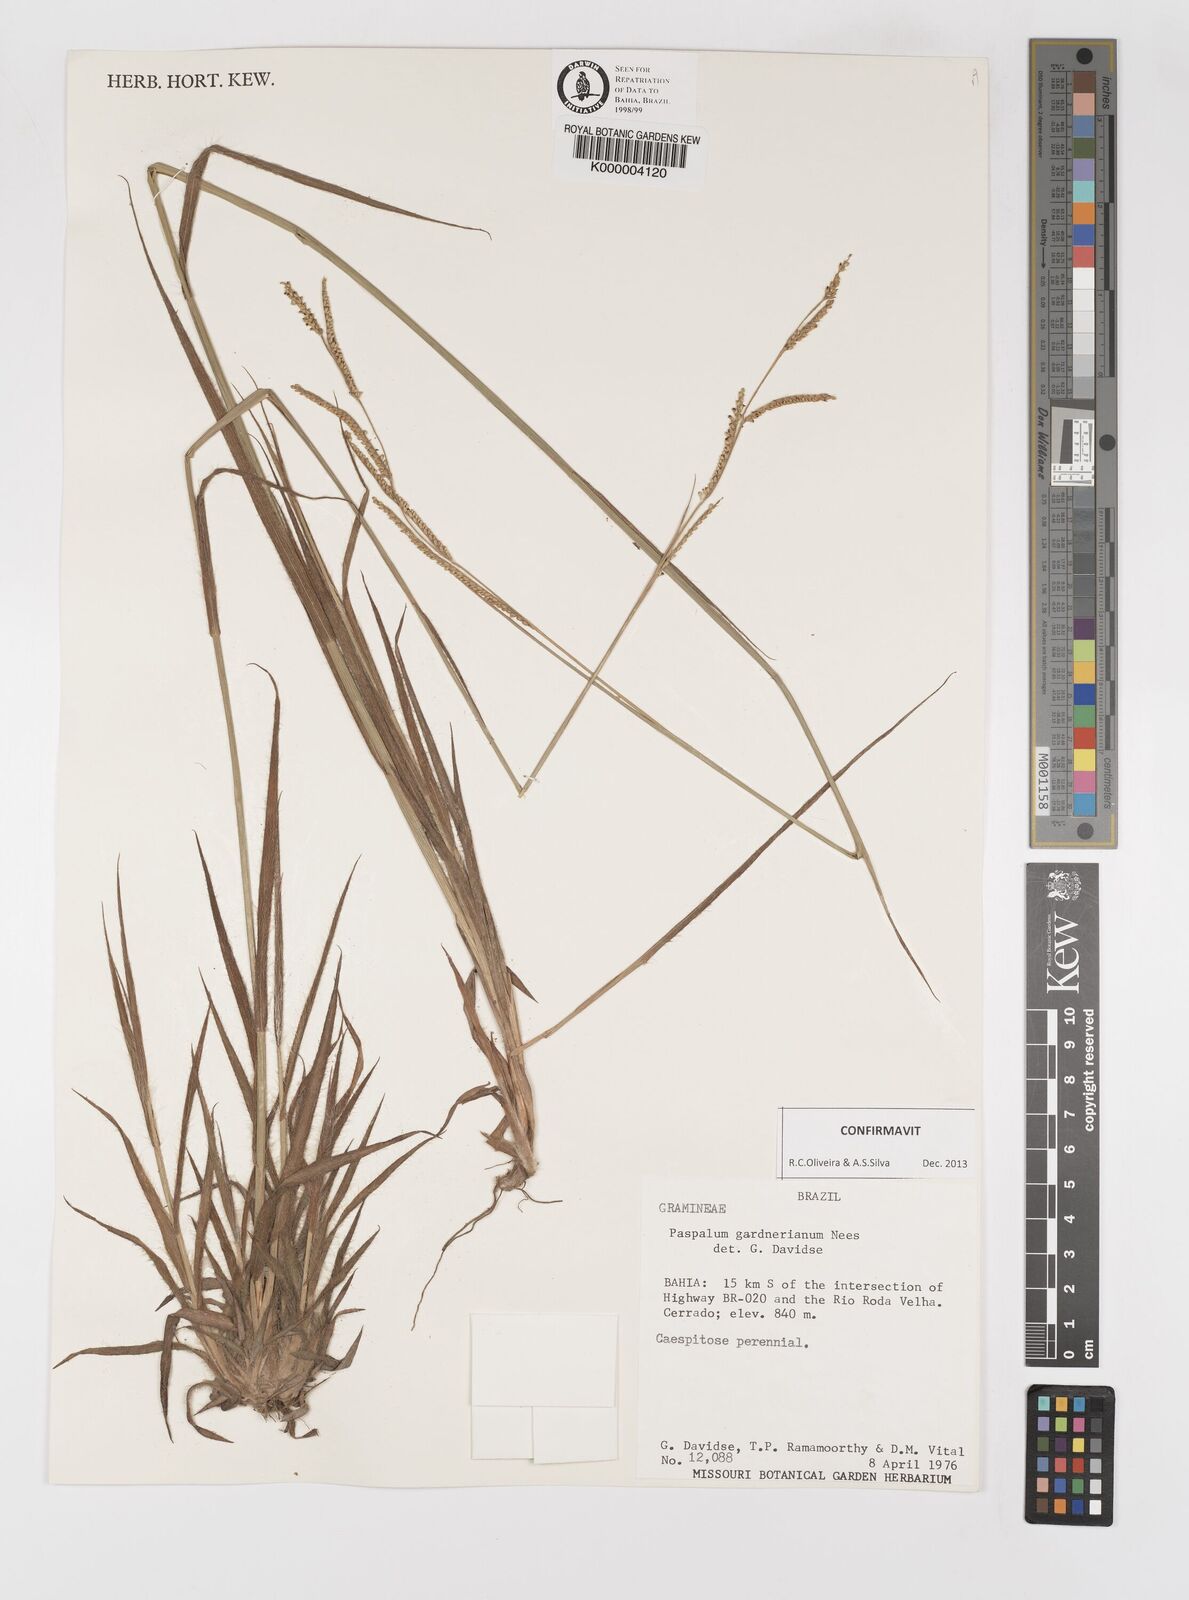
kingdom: Plantae
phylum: Tracheophyta
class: Liliopsida
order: Poales
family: Poaceae
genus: Paspalum
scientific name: Paspalum gardnerianum
